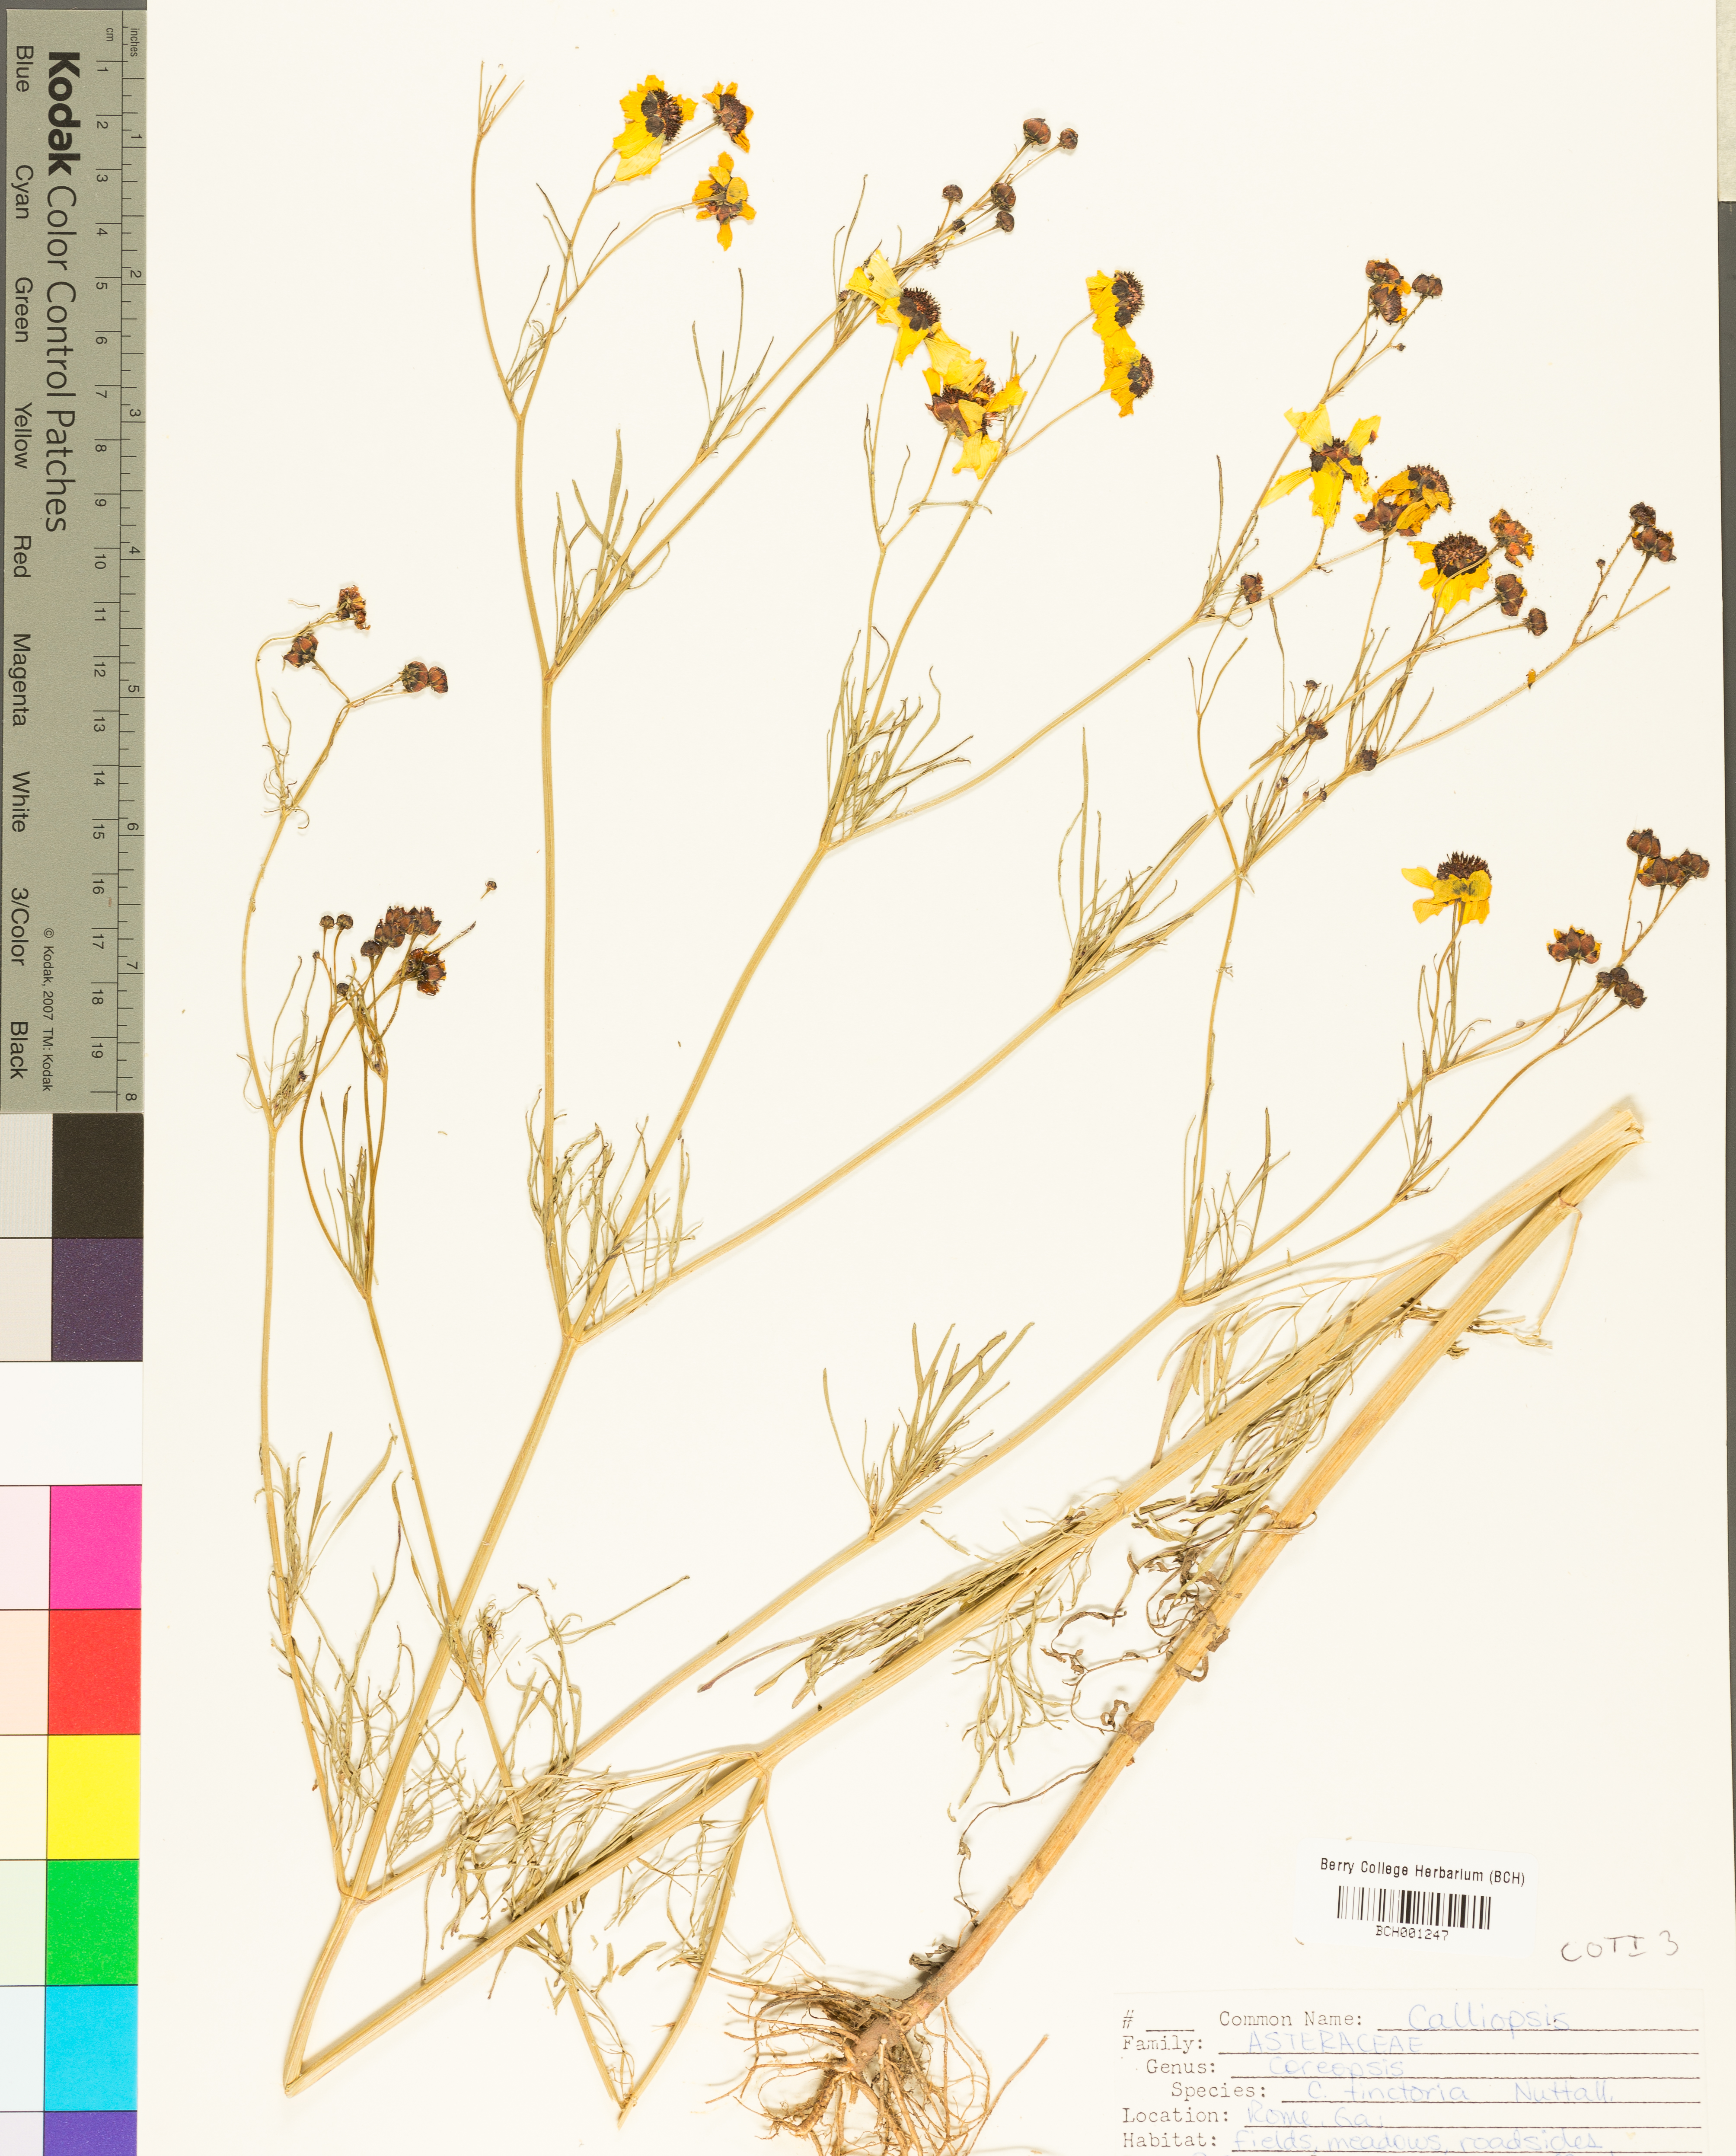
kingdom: Plantae
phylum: Tracheophyta
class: Magnoliopsida
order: Asterales
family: Asteraceae
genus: Coreopsis
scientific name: Coreopsis tinctoria
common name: Garden tickseed
